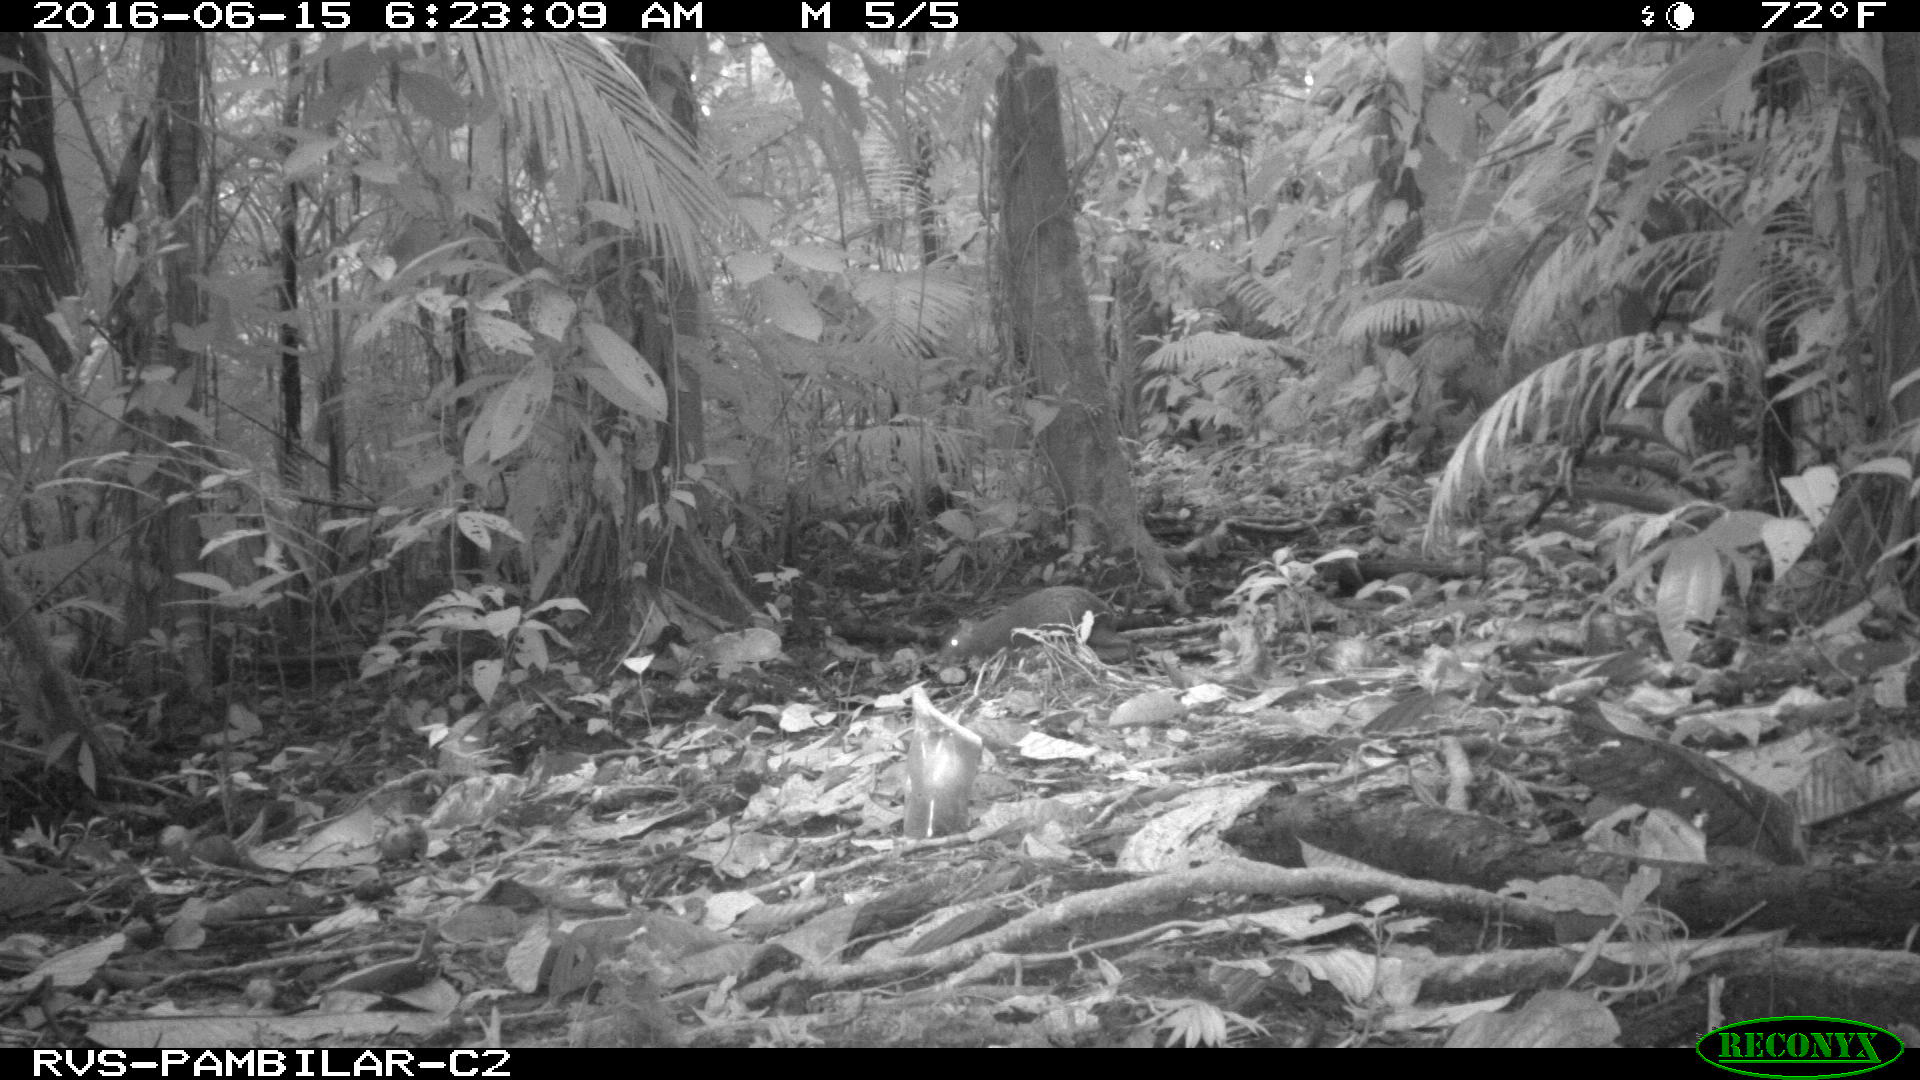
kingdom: Animalia
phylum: Chordata
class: Mammalia
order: Rodentia
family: Dasyproctidae
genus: Dasyprocta
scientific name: Dasyprocta punctata
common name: Central american agouti
